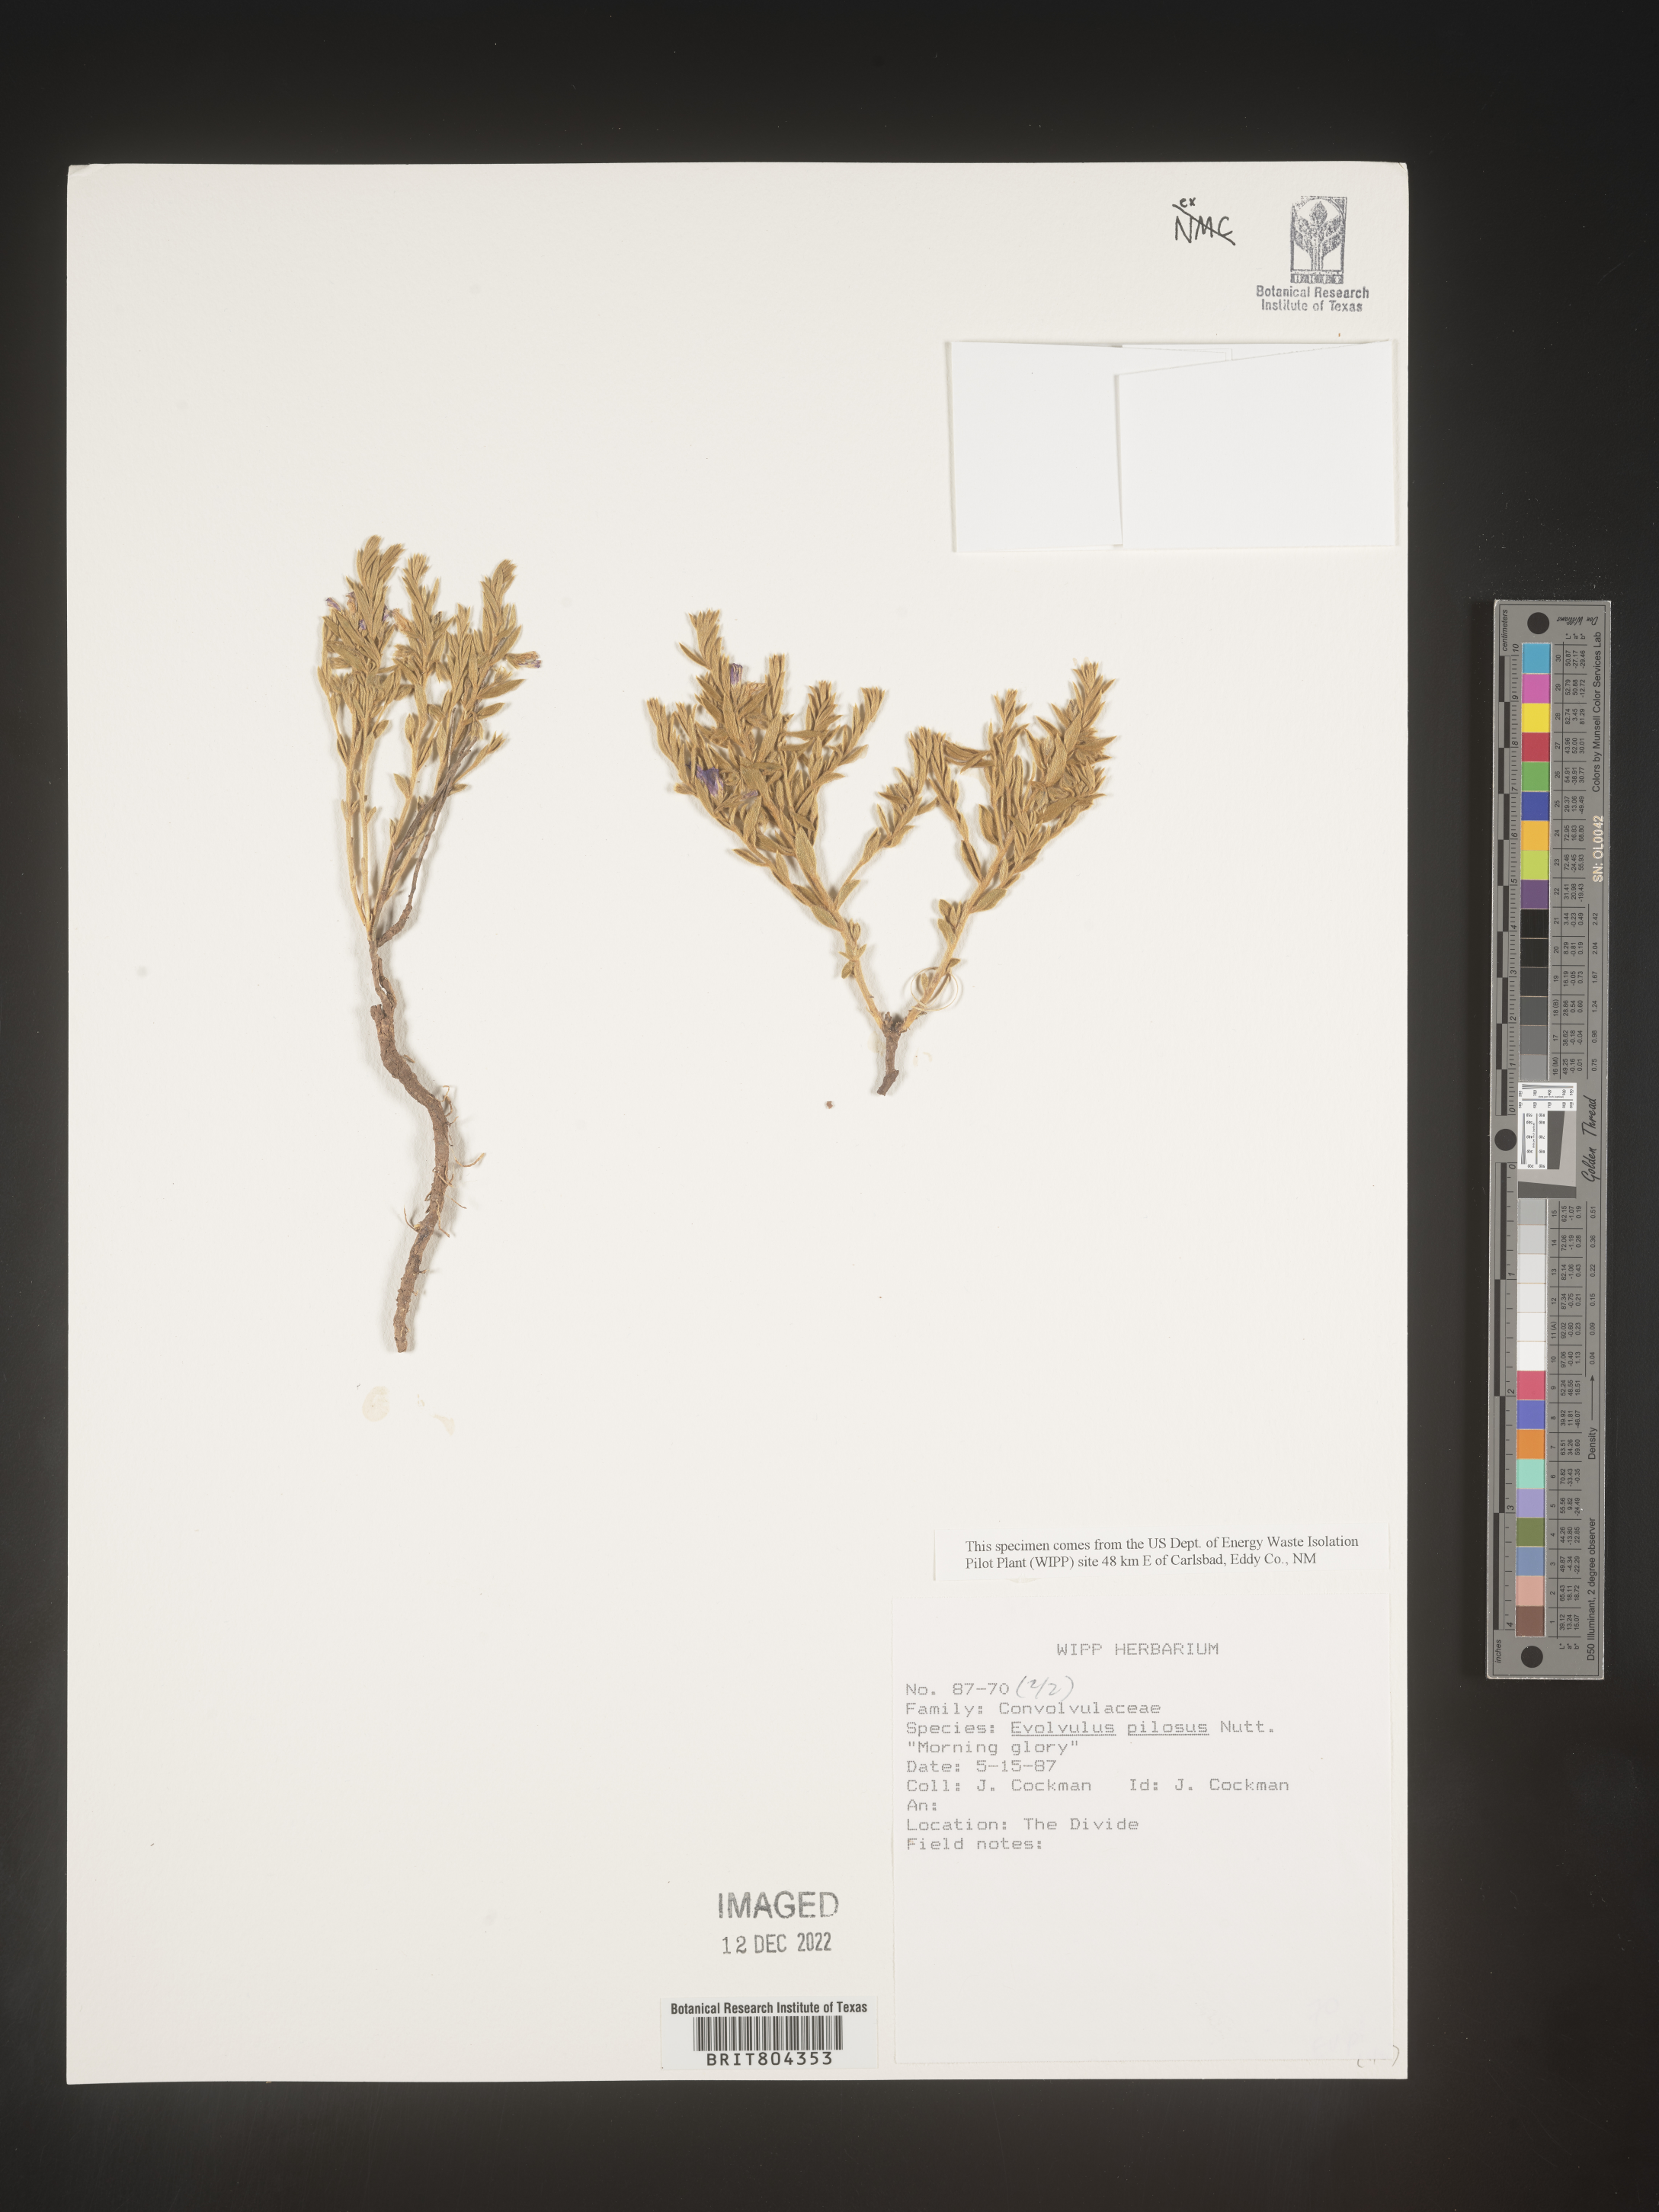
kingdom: Plantae
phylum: Tracheophyta
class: Magnoliopsida
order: Solanales
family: Convolvulaceae
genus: Evolvulus
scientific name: Evolvulus nuttallianus
